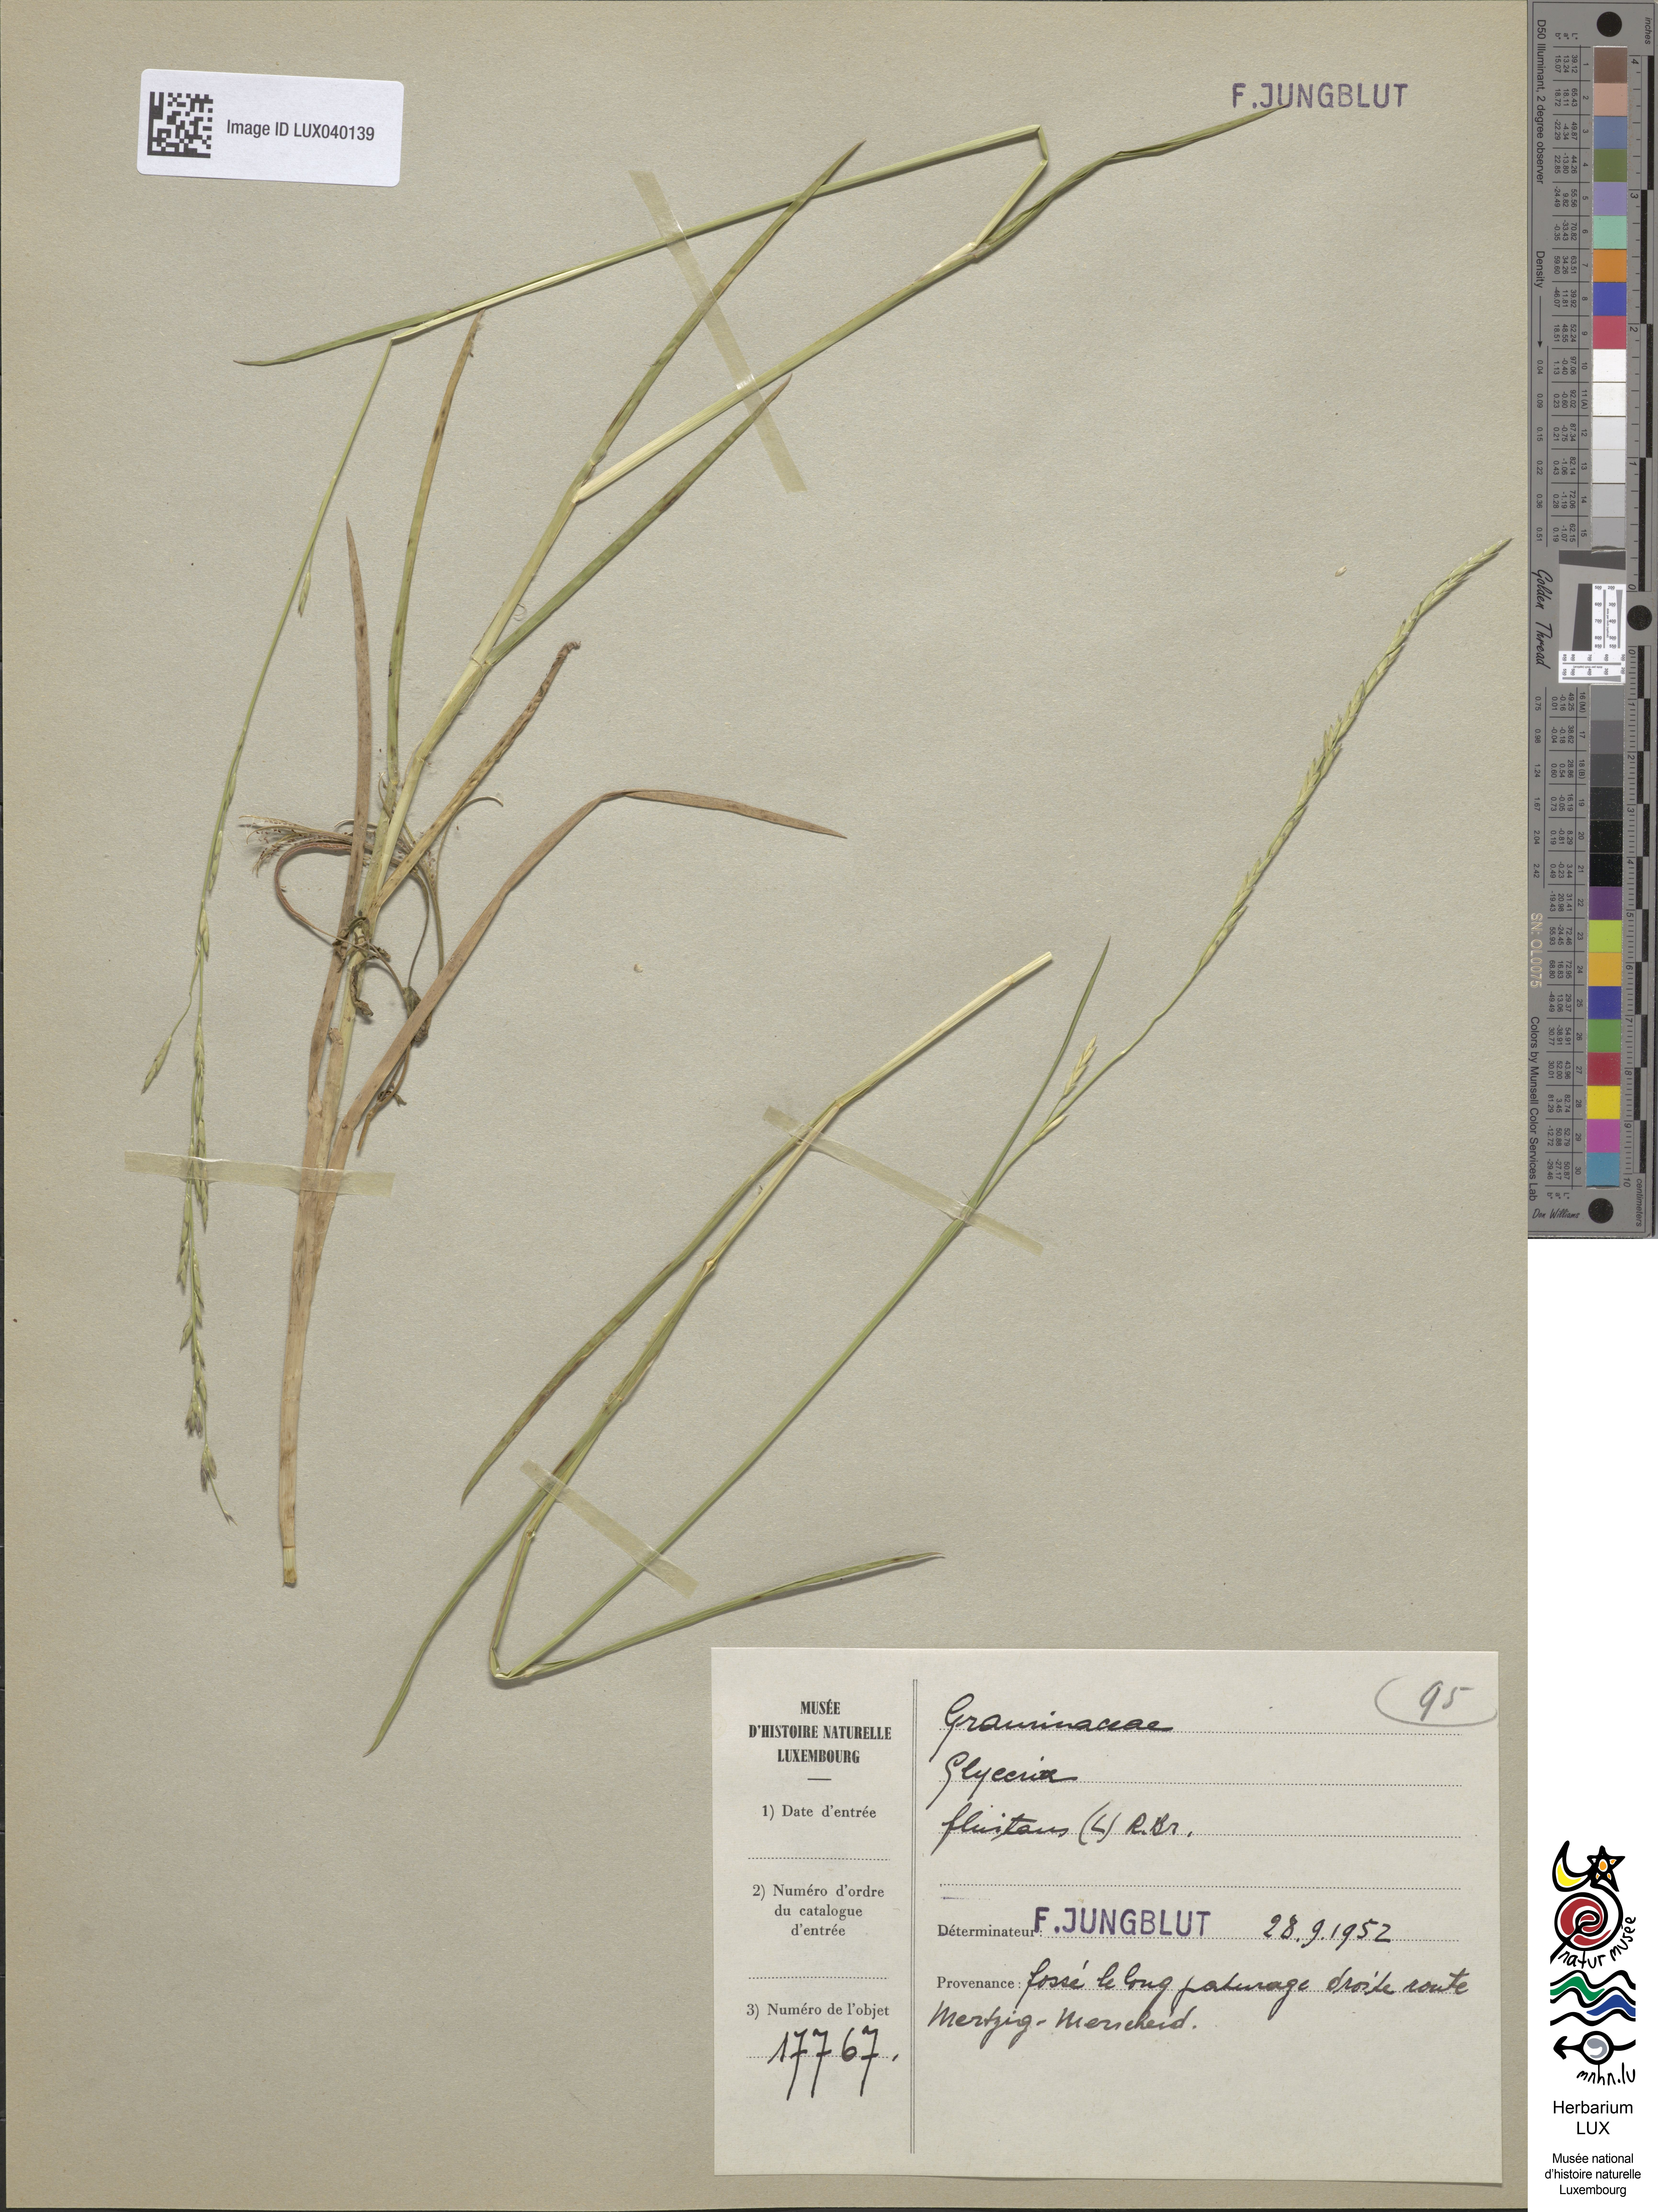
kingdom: Plantae
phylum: Tracheophyta
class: Liliopsida
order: Poales
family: Poaceae
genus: Glyceria
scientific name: Glyceria fluitans
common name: Floating sweet-grass
